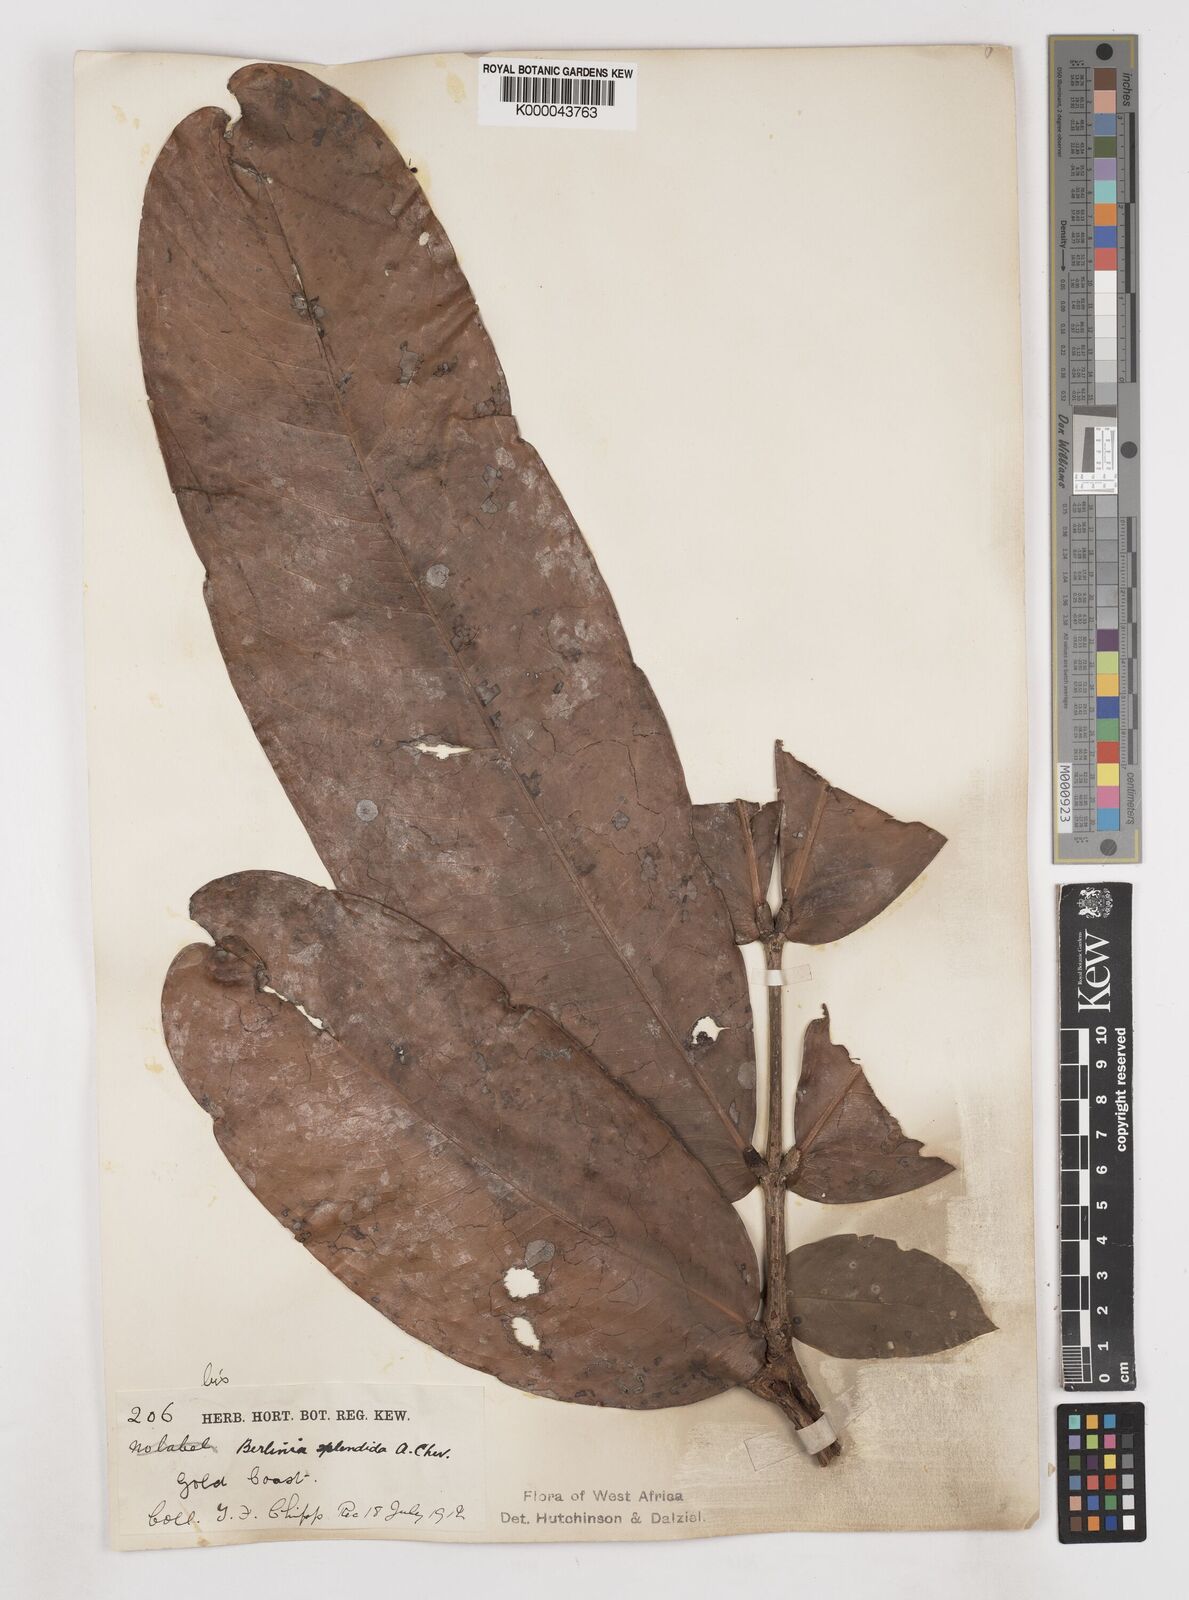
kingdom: Plantae
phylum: Tracheophyta
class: Magnoliopsida
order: Fabales
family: Fabaceae
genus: Gilbertiodendron
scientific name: Gilbertiodendron
